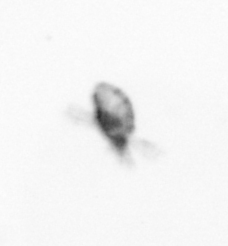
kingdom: Animalia
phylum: Arthropoda
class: Copepoda
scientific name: Copepoda
